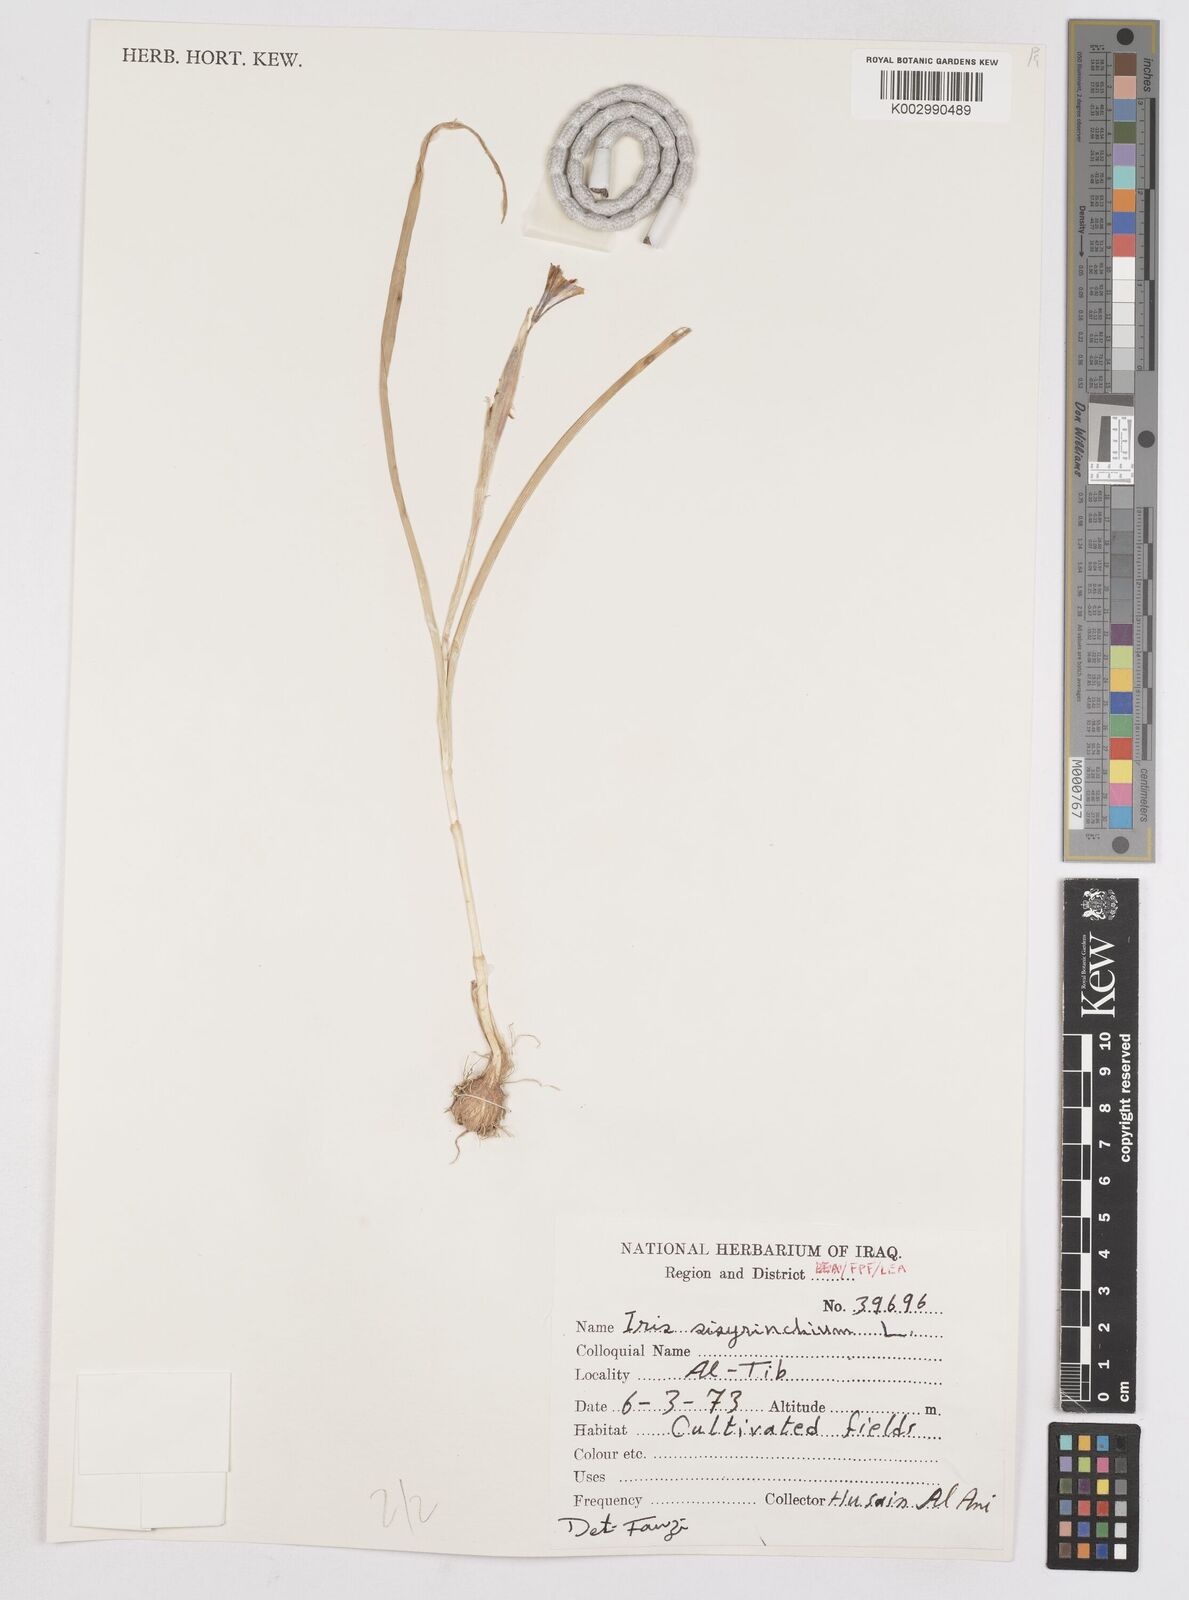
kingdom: Plantae
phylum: Tracheophyta
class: Liliopsida
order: Asparagales
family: Iridaceae
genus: Moraea
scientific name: Moraea sisyrinchium
